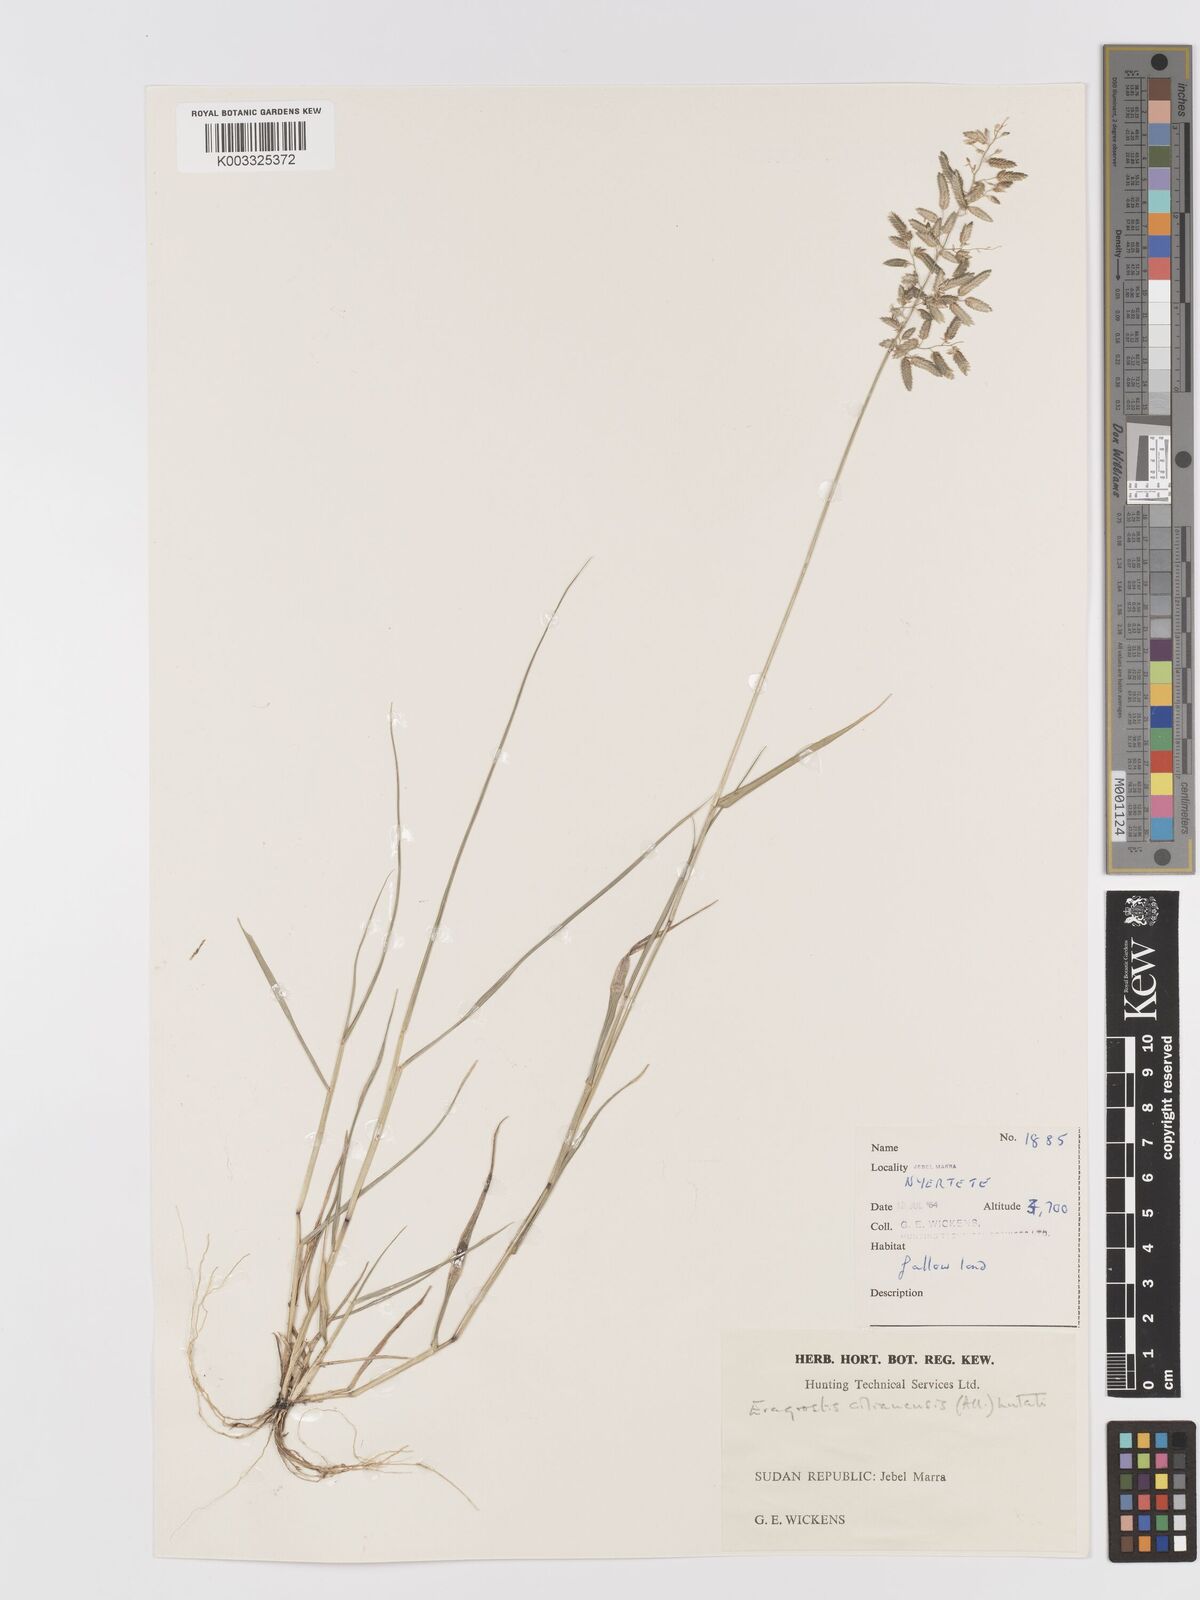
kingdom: Plantae
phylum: Tracheophyta
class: Liliopsida
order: Poales
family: Poaceae
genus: Eragrostis
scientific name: Eragrostis cilianensis
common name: Stinkgrass
